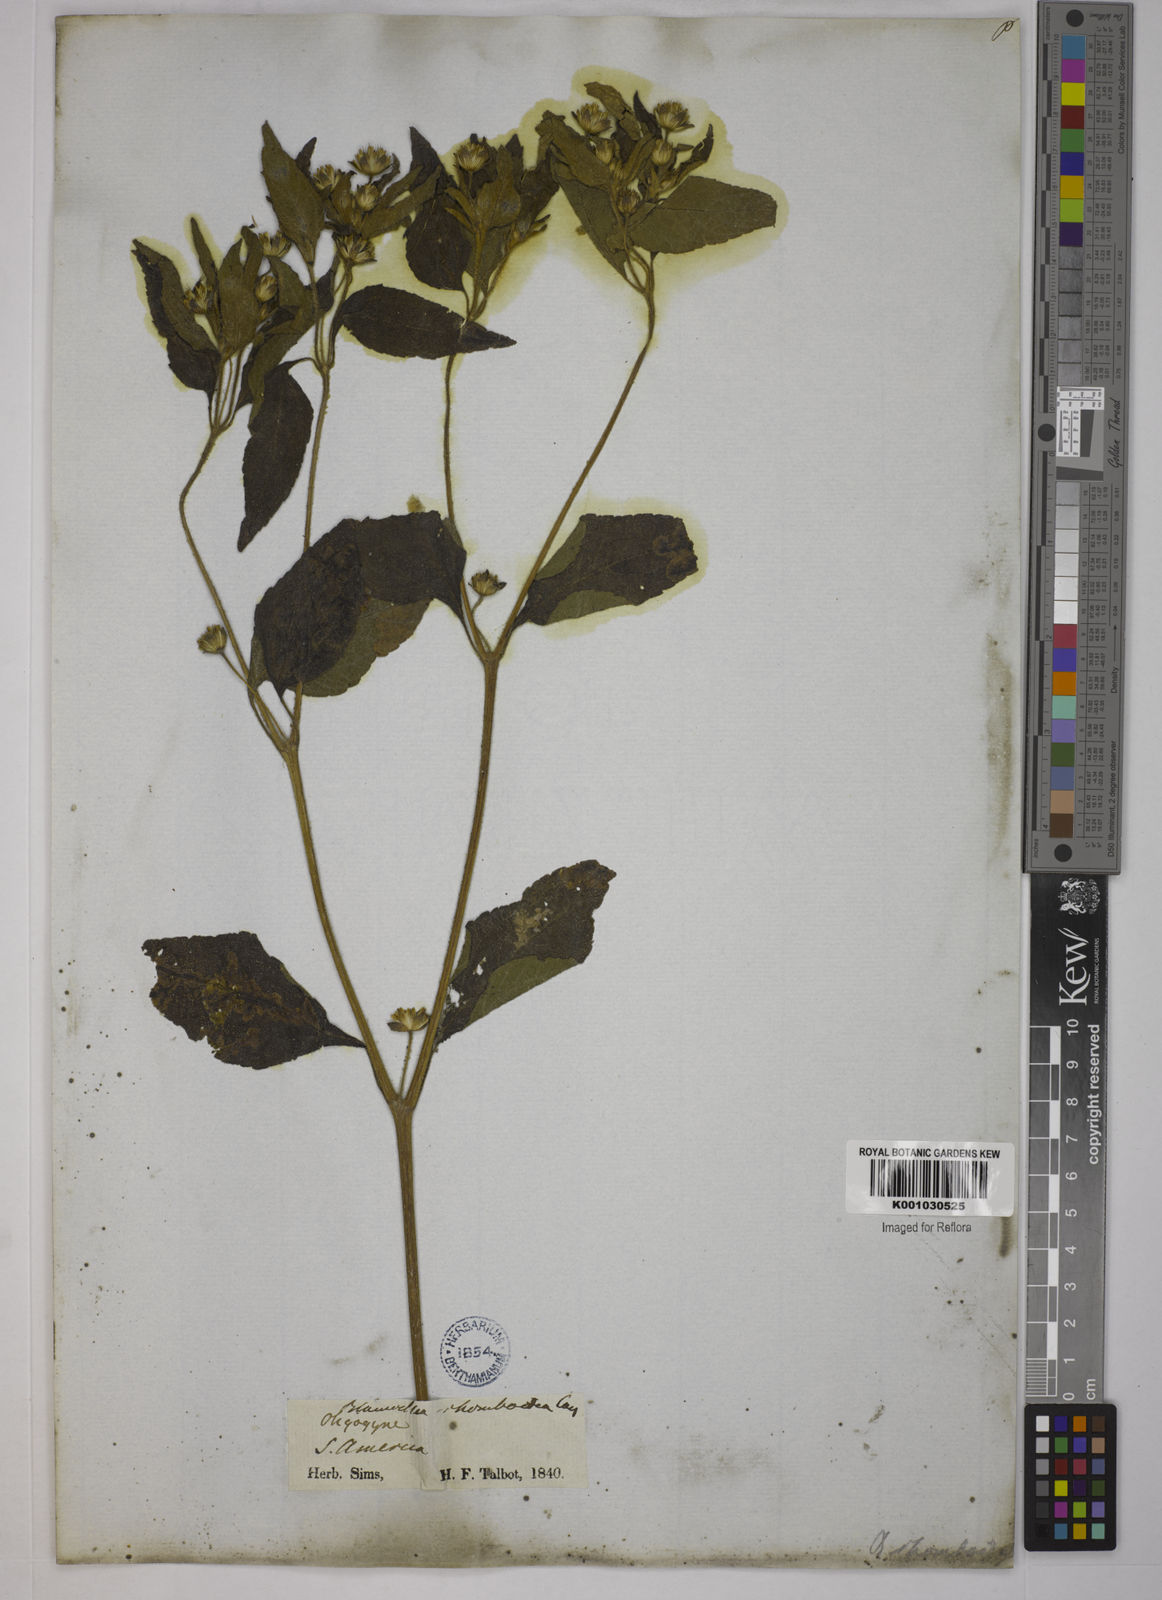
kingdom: Plantae
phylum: Tracheophyta
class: Magnoliopsida
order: Asterales
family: Asteraceae
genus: Blainvillea
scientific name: Blainvillea acmella
